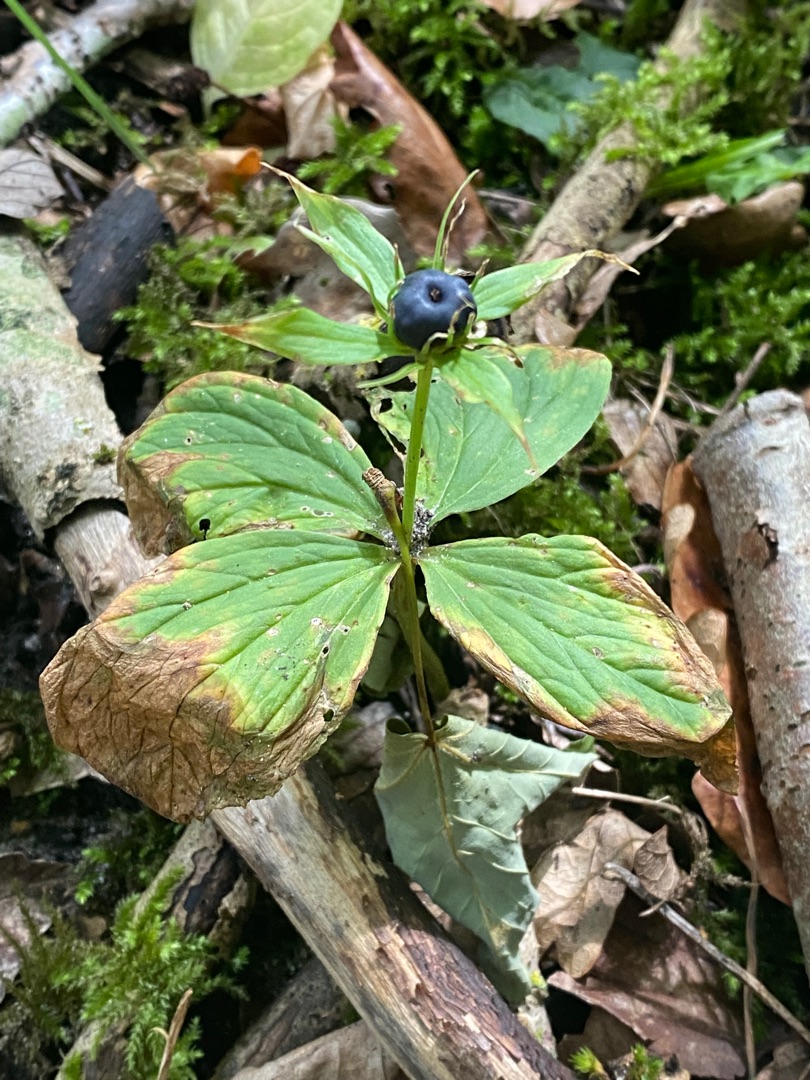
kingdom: Plantae
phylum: Tracheophyta
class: Liliopsida
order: Liliales
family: Melanthiaceae
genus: Paris
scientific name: Paris quadrifolia
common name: Firblad
